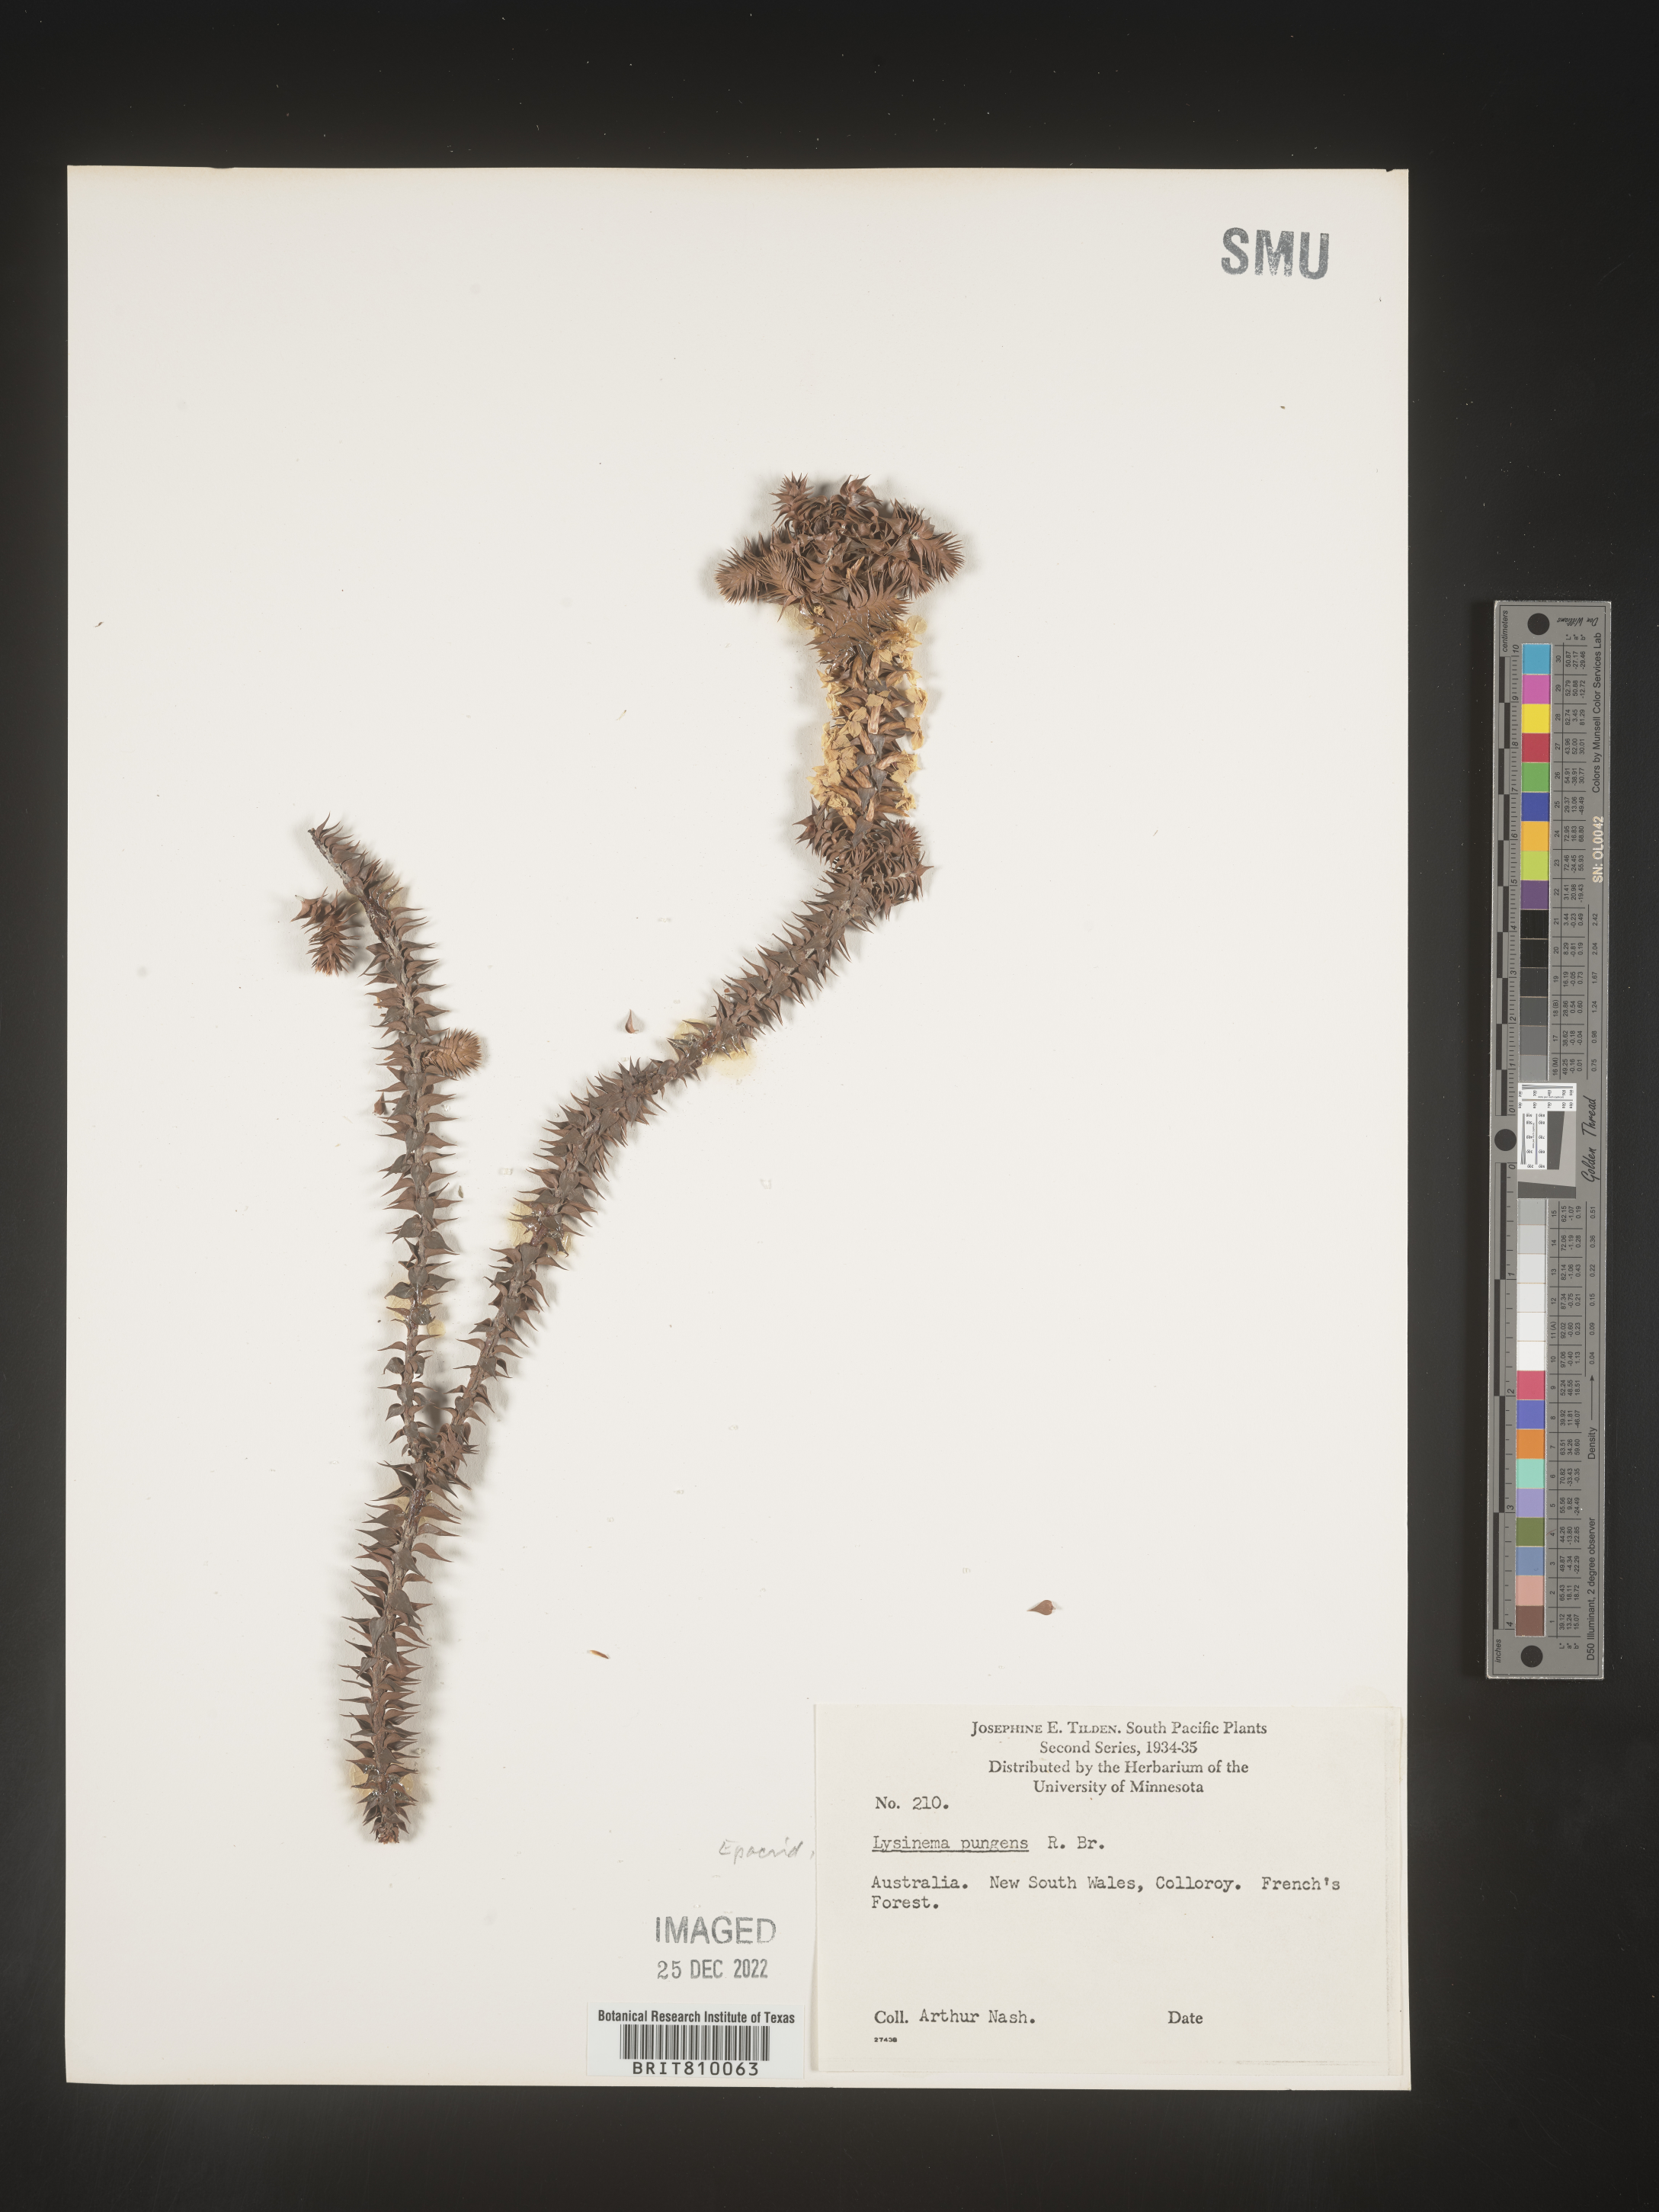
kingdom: Plantae
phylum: Tracheophyta
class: Magnoliopsida
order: Ericales
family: Ericaceae
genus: Lysinema
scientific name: Lysinema
